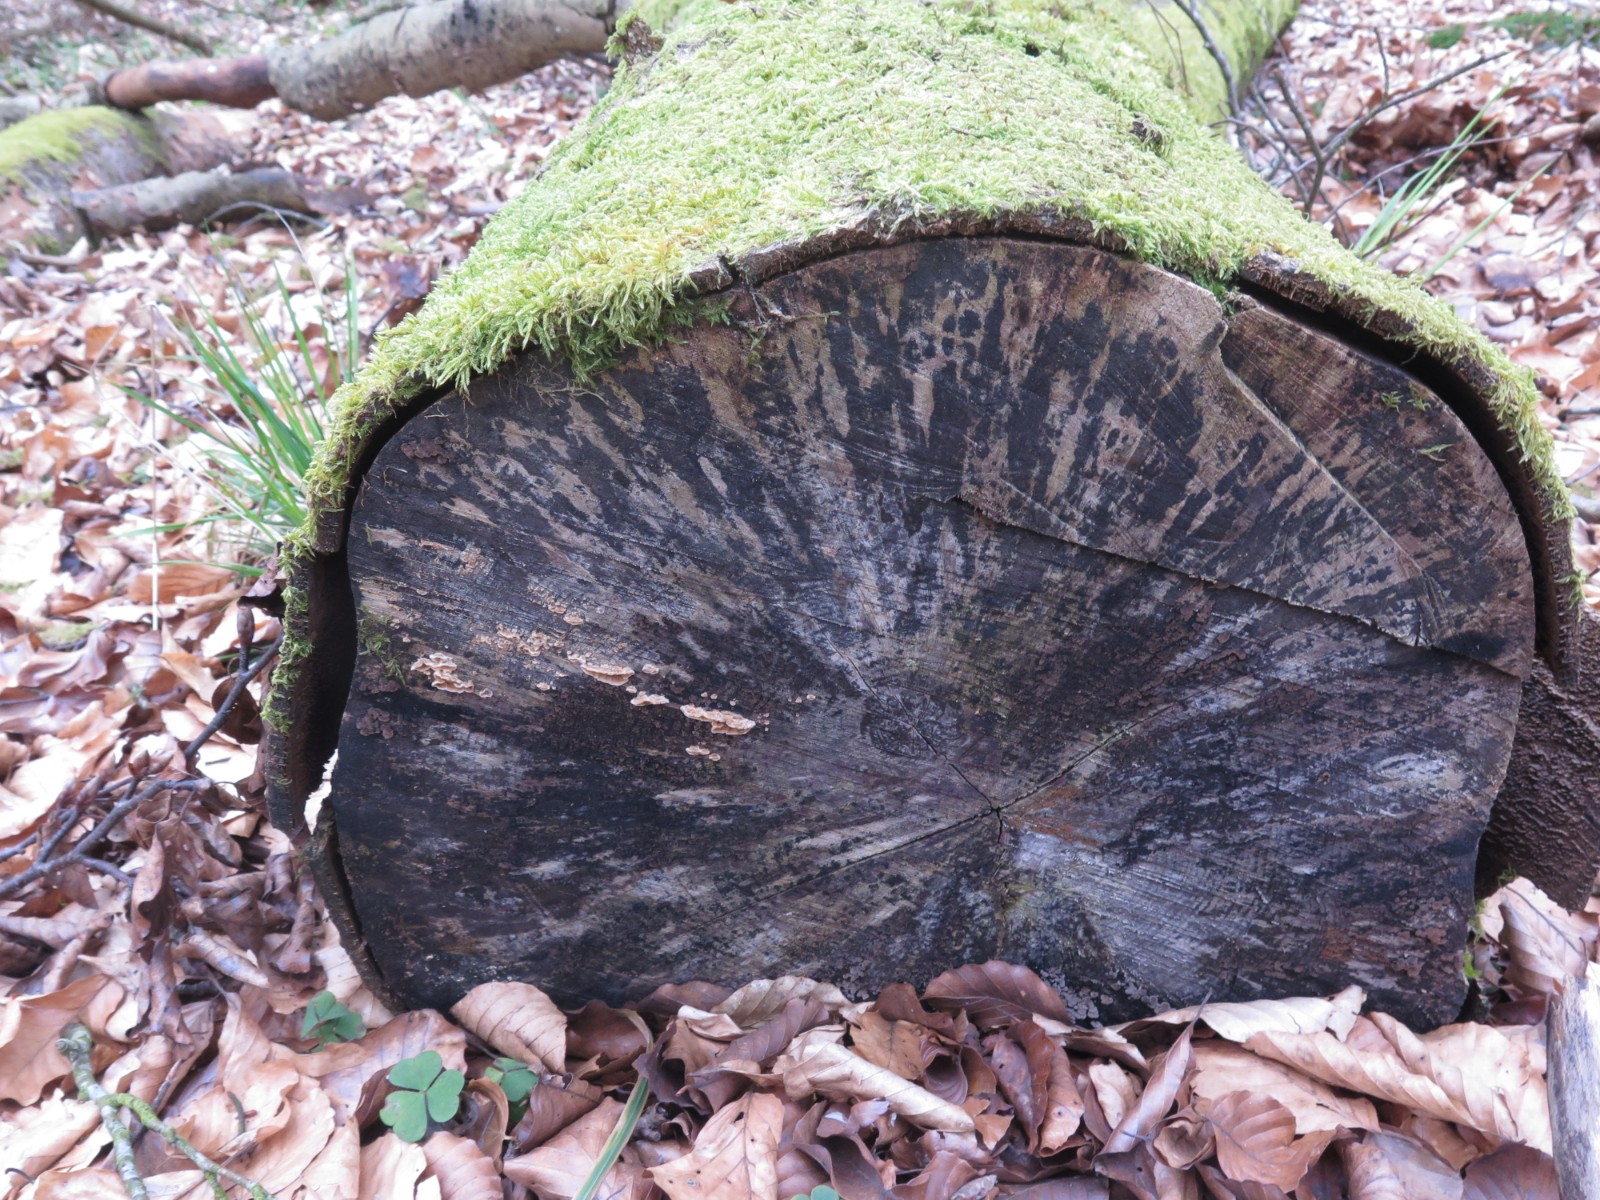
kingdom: Fungi
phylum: Ascomycota
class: Leotiomycetes
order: Helotiales
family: Helotiaceae
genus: Bispora
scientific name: Bispora pallescens
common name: måtte-snitskive
